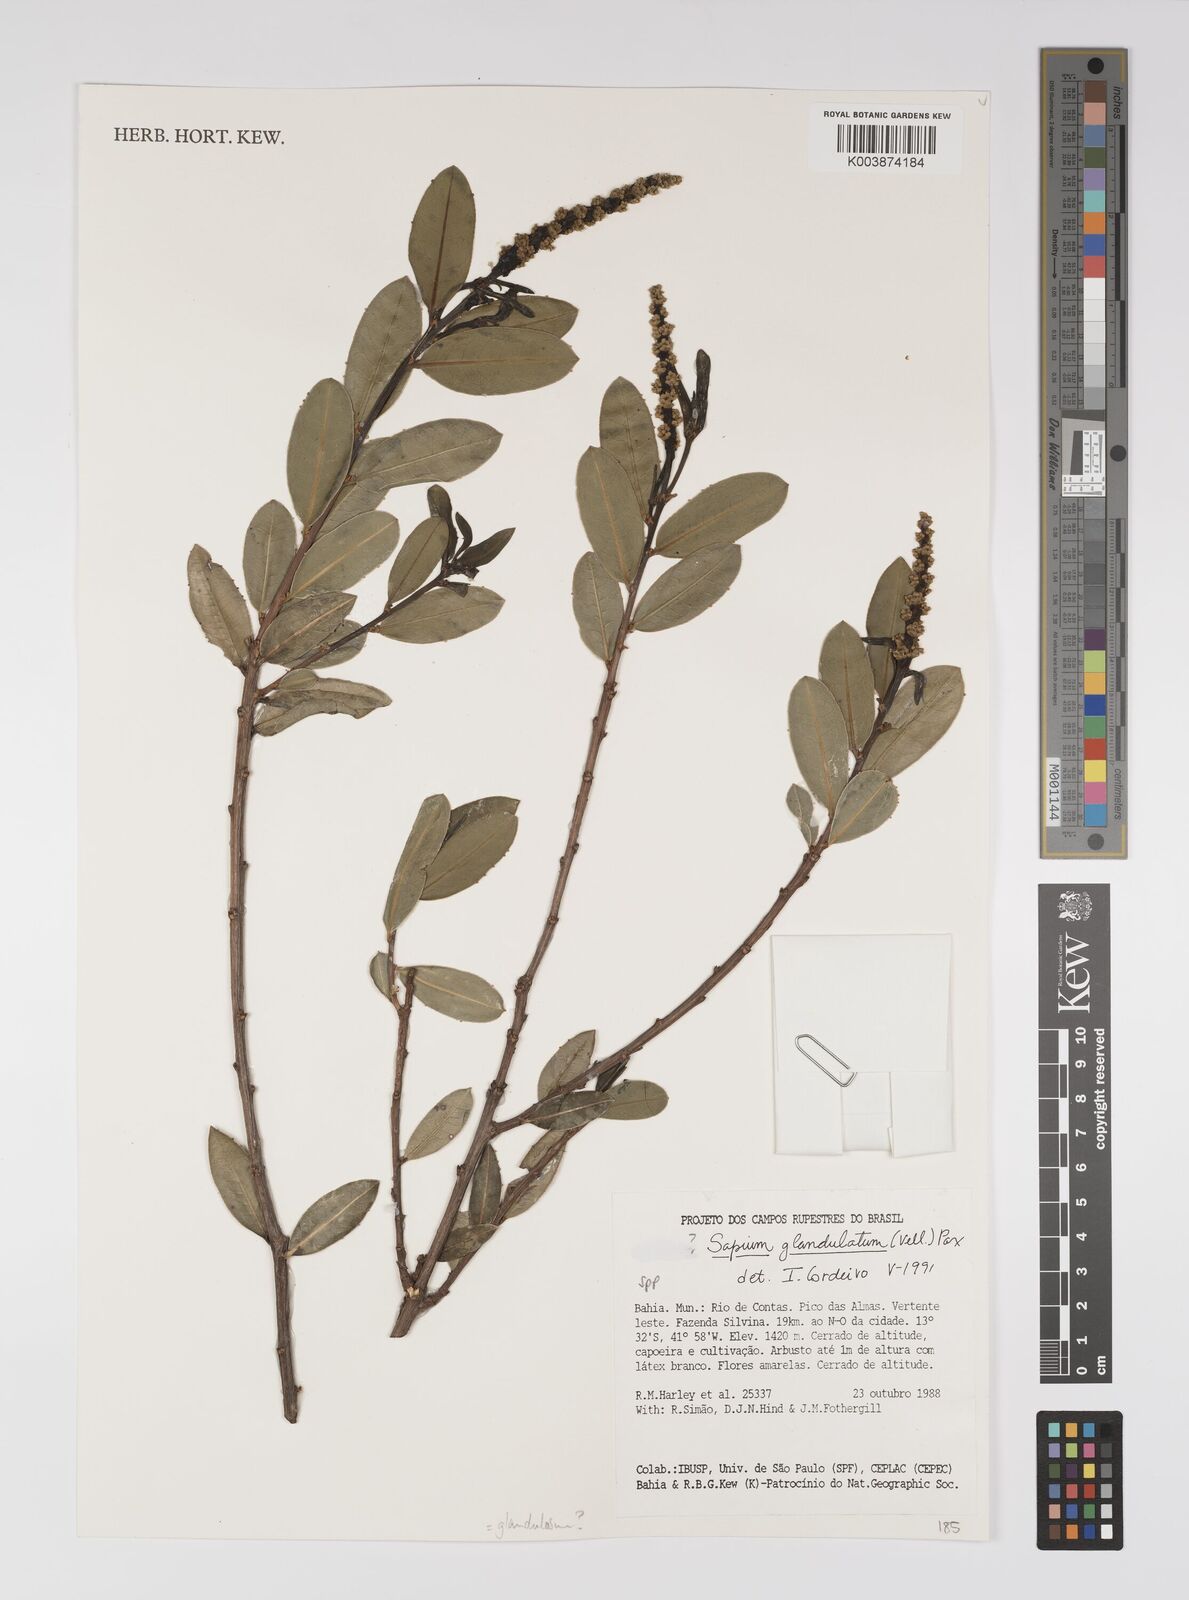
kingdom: Plantae
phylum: Tracheophyta
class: Magnoliopsida
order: Malpighiales
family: Euphorbiaceae
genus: Sapium
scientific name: Sapium
